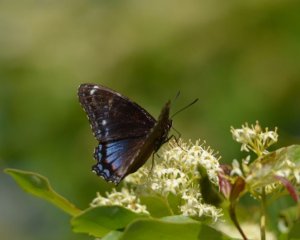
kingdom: Animalia
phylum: Arthropoda
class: Insecta
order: Lepidoptera
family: Nymphalidae
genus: Limenitis
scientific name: Limenitis astyanax
